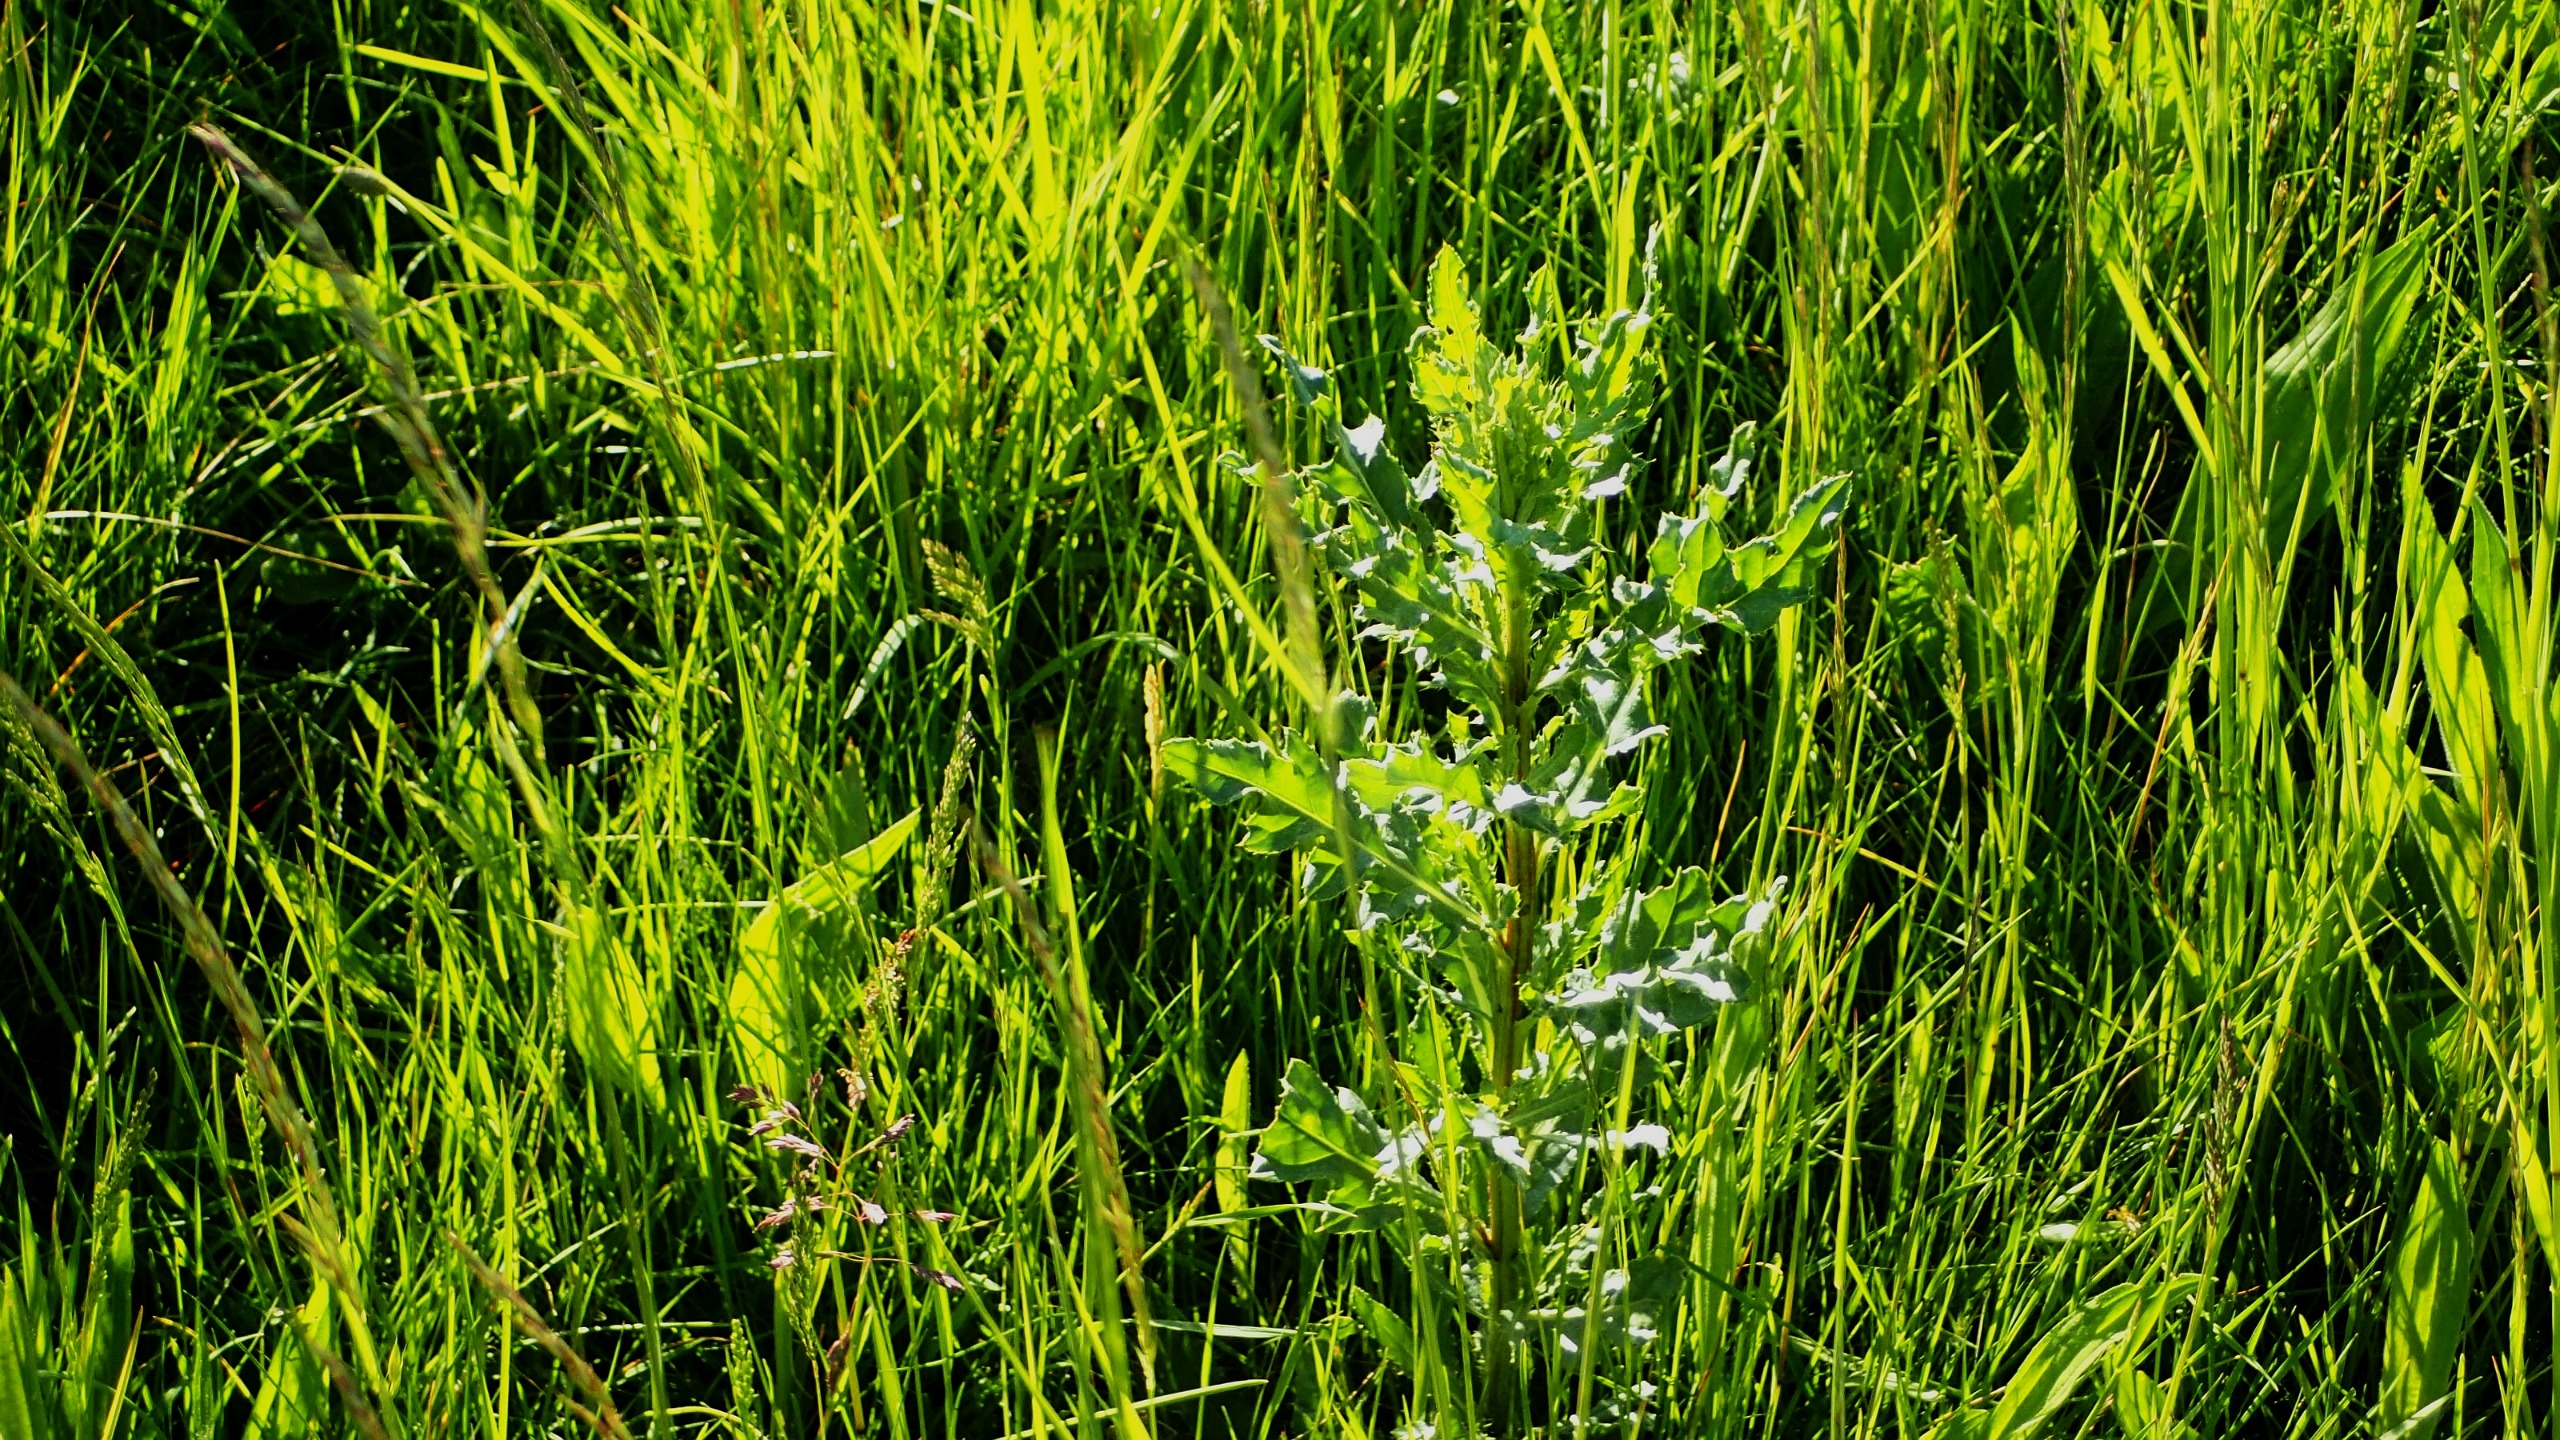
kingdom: Plantae
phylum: Tracheophyta
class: Magnoliopsida
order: Asterales
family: Asteraceae
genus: Cirsium
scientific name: Cirsium arvense
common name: Ager-tidsel
